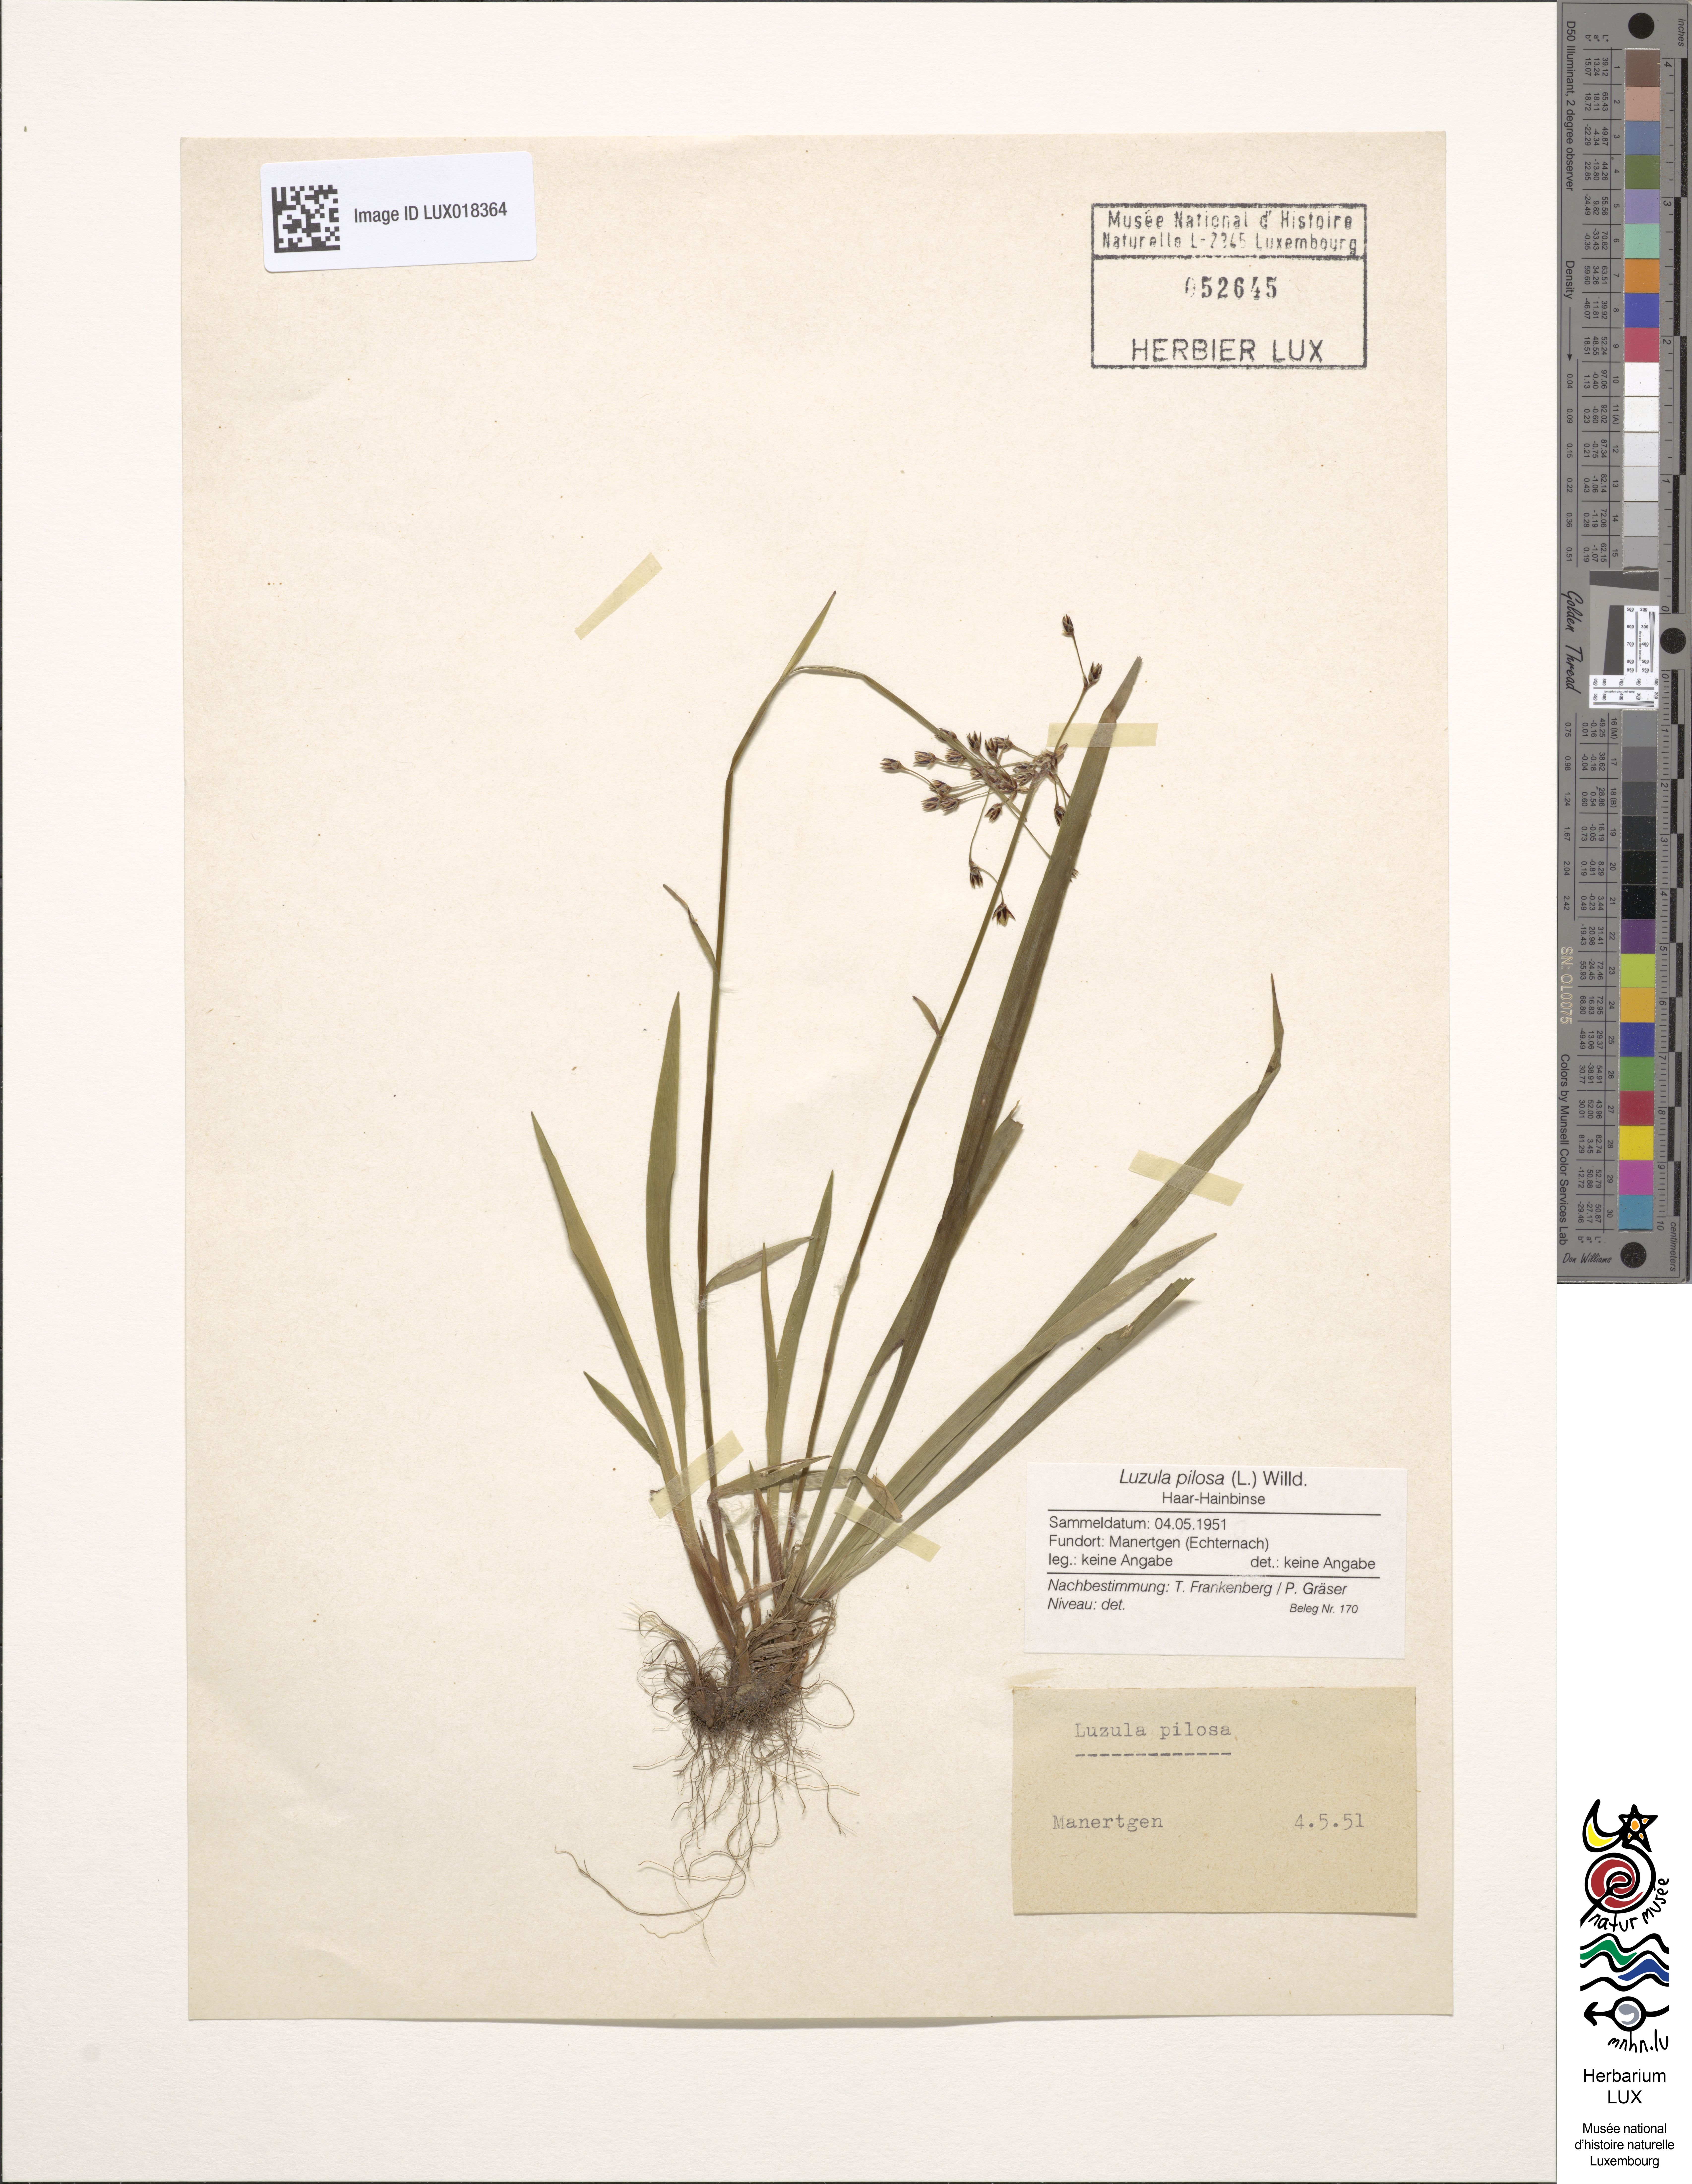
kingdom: Plantae
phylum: Tracheophyta
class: Liliopsida
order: Poales
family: Juncaceae
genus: Luzula
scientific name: Luzula pilosa
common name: Hairy wood-rush
